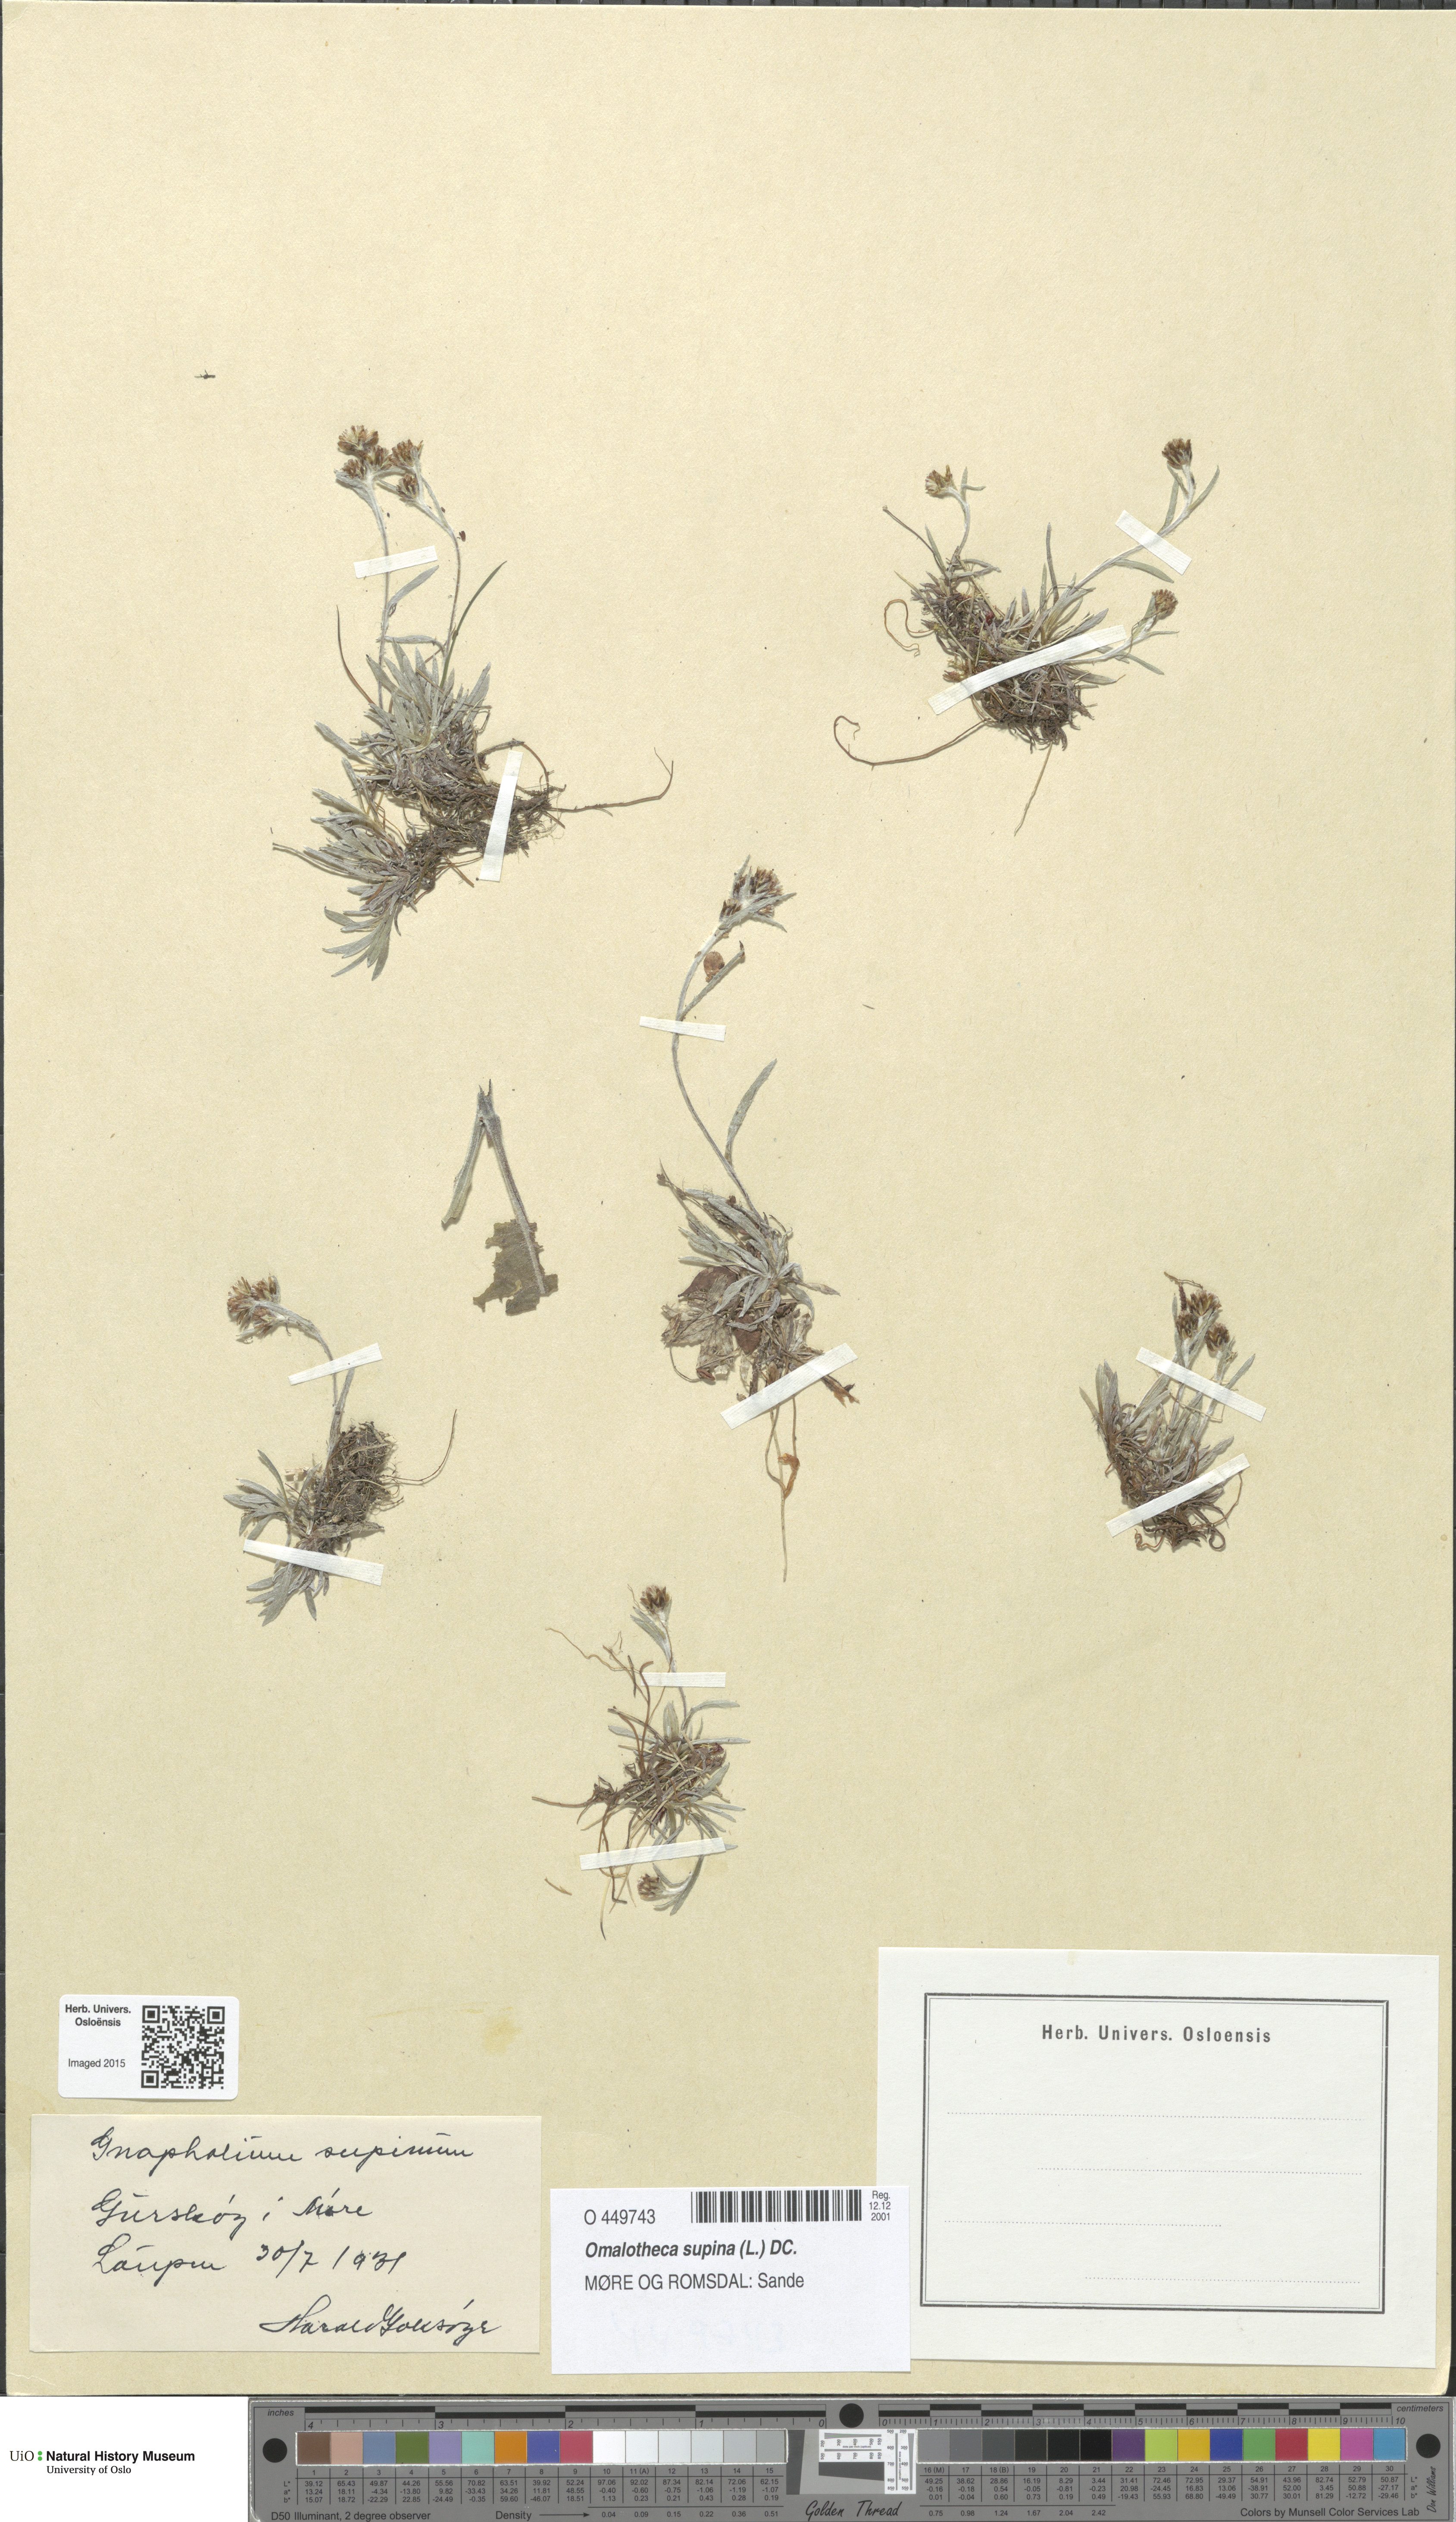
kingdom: Plantae
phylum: Tracheophyta
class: Magnoliopsida
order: Asterales
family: Asteraceae
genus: Omalotheca
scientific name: Omalotheca supina
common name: Alpine arctic-cudweed
